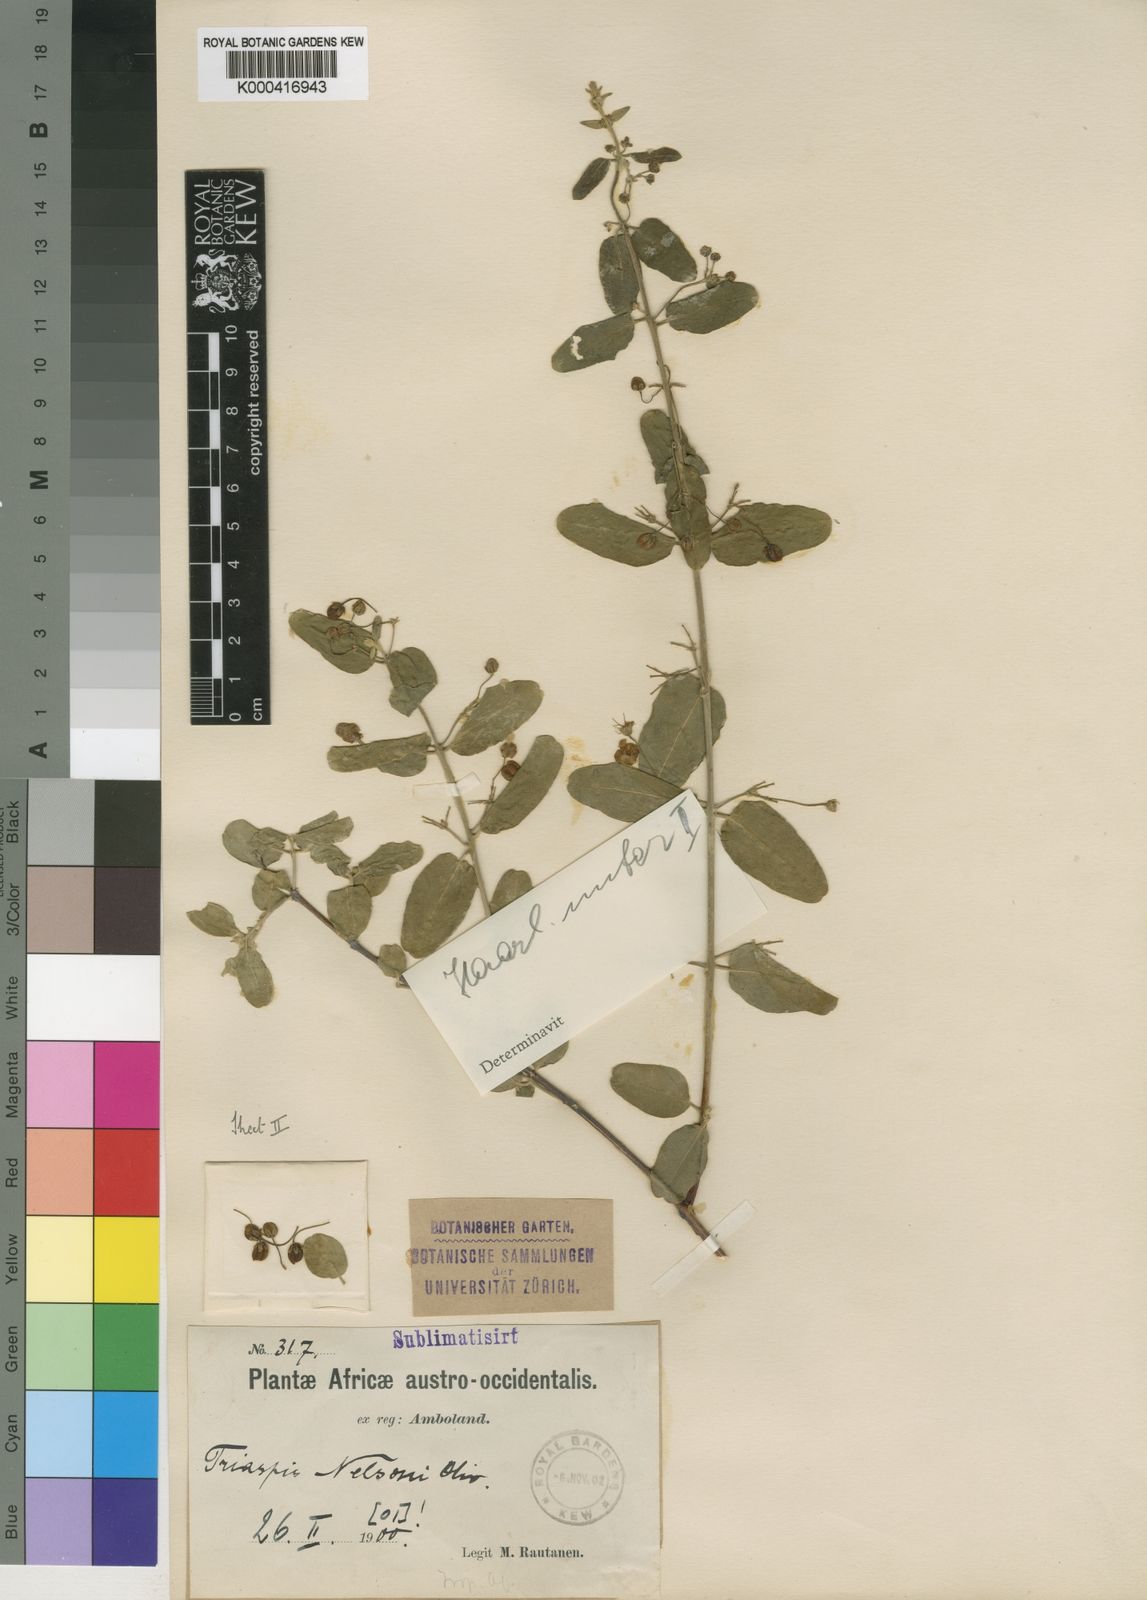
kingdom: Plantae
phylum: Tracheophyta
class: Magnoliopsida
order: Malpighiales
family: Malpighiaceae
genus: Triaspis
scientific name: Triaspis hypericoides
